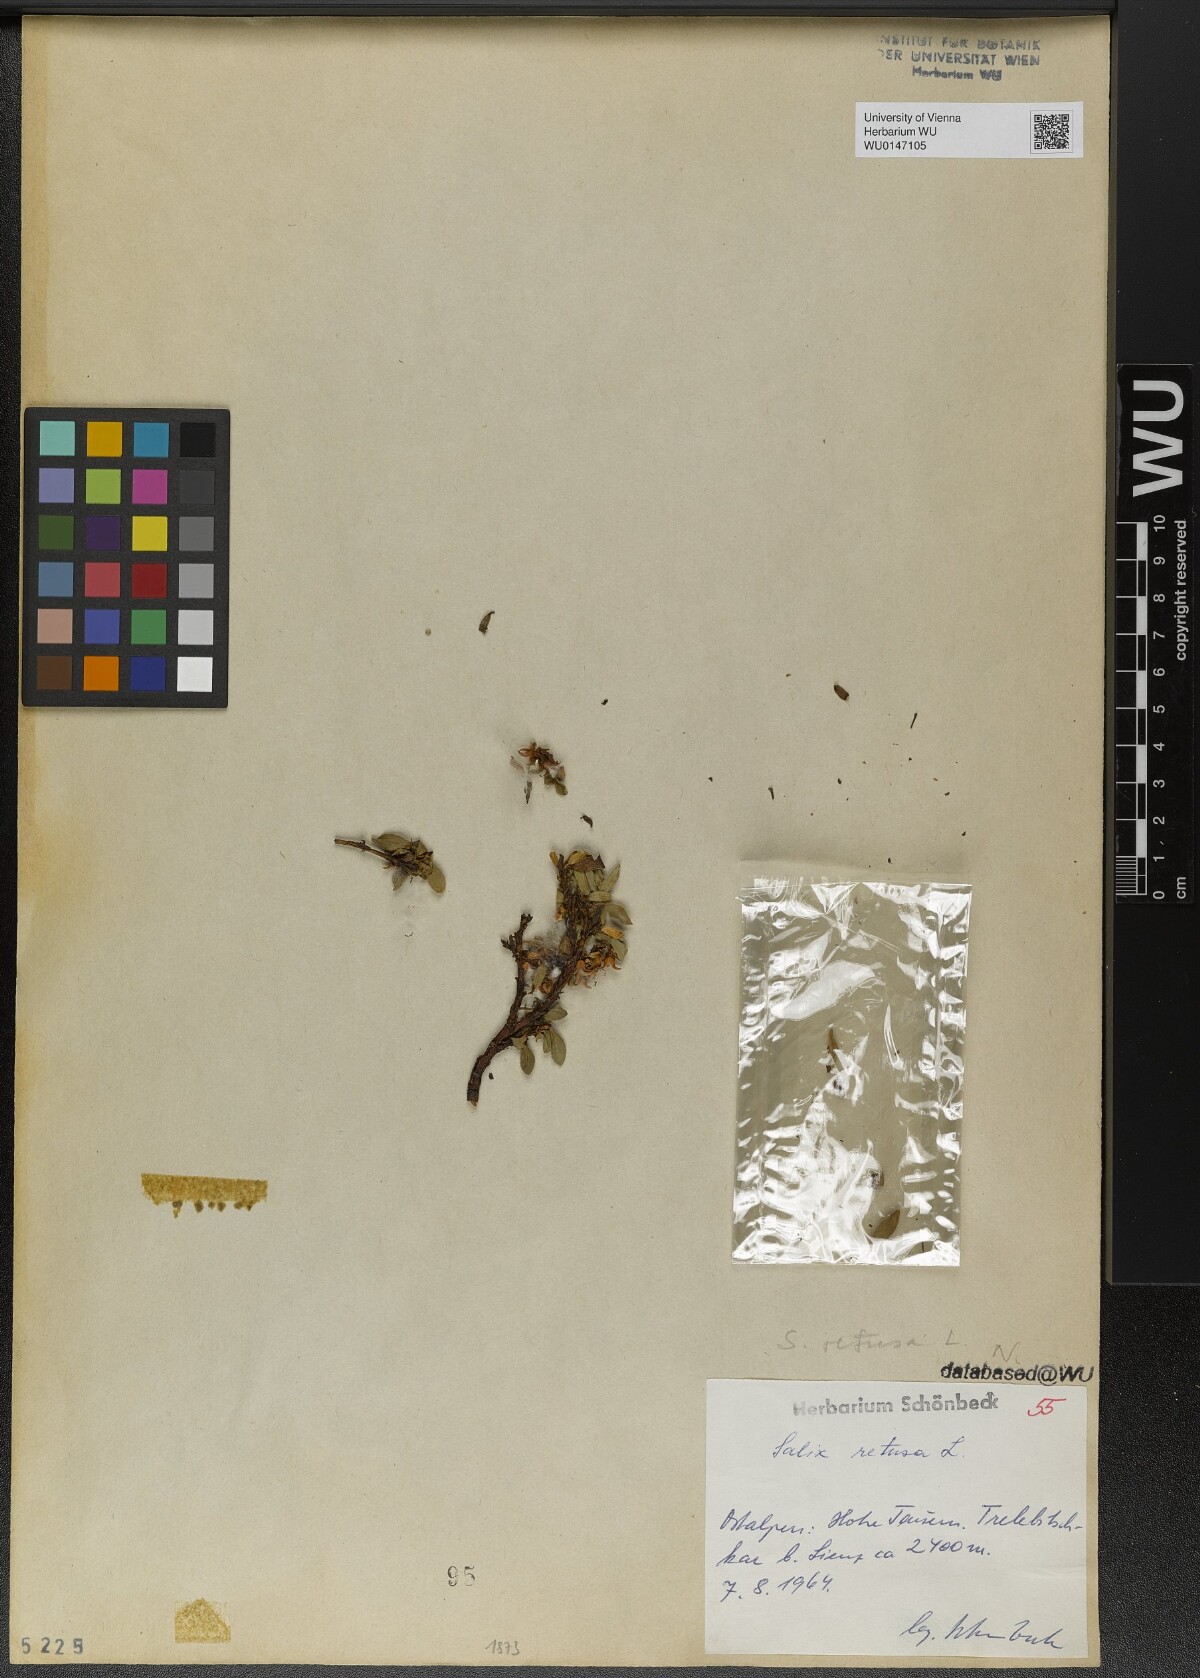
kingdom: Plantae
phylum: Tracheophyta
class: Magnoliopsida
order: Malpighiales
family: Salicaceae
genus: Salix
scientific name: Salix retusa
